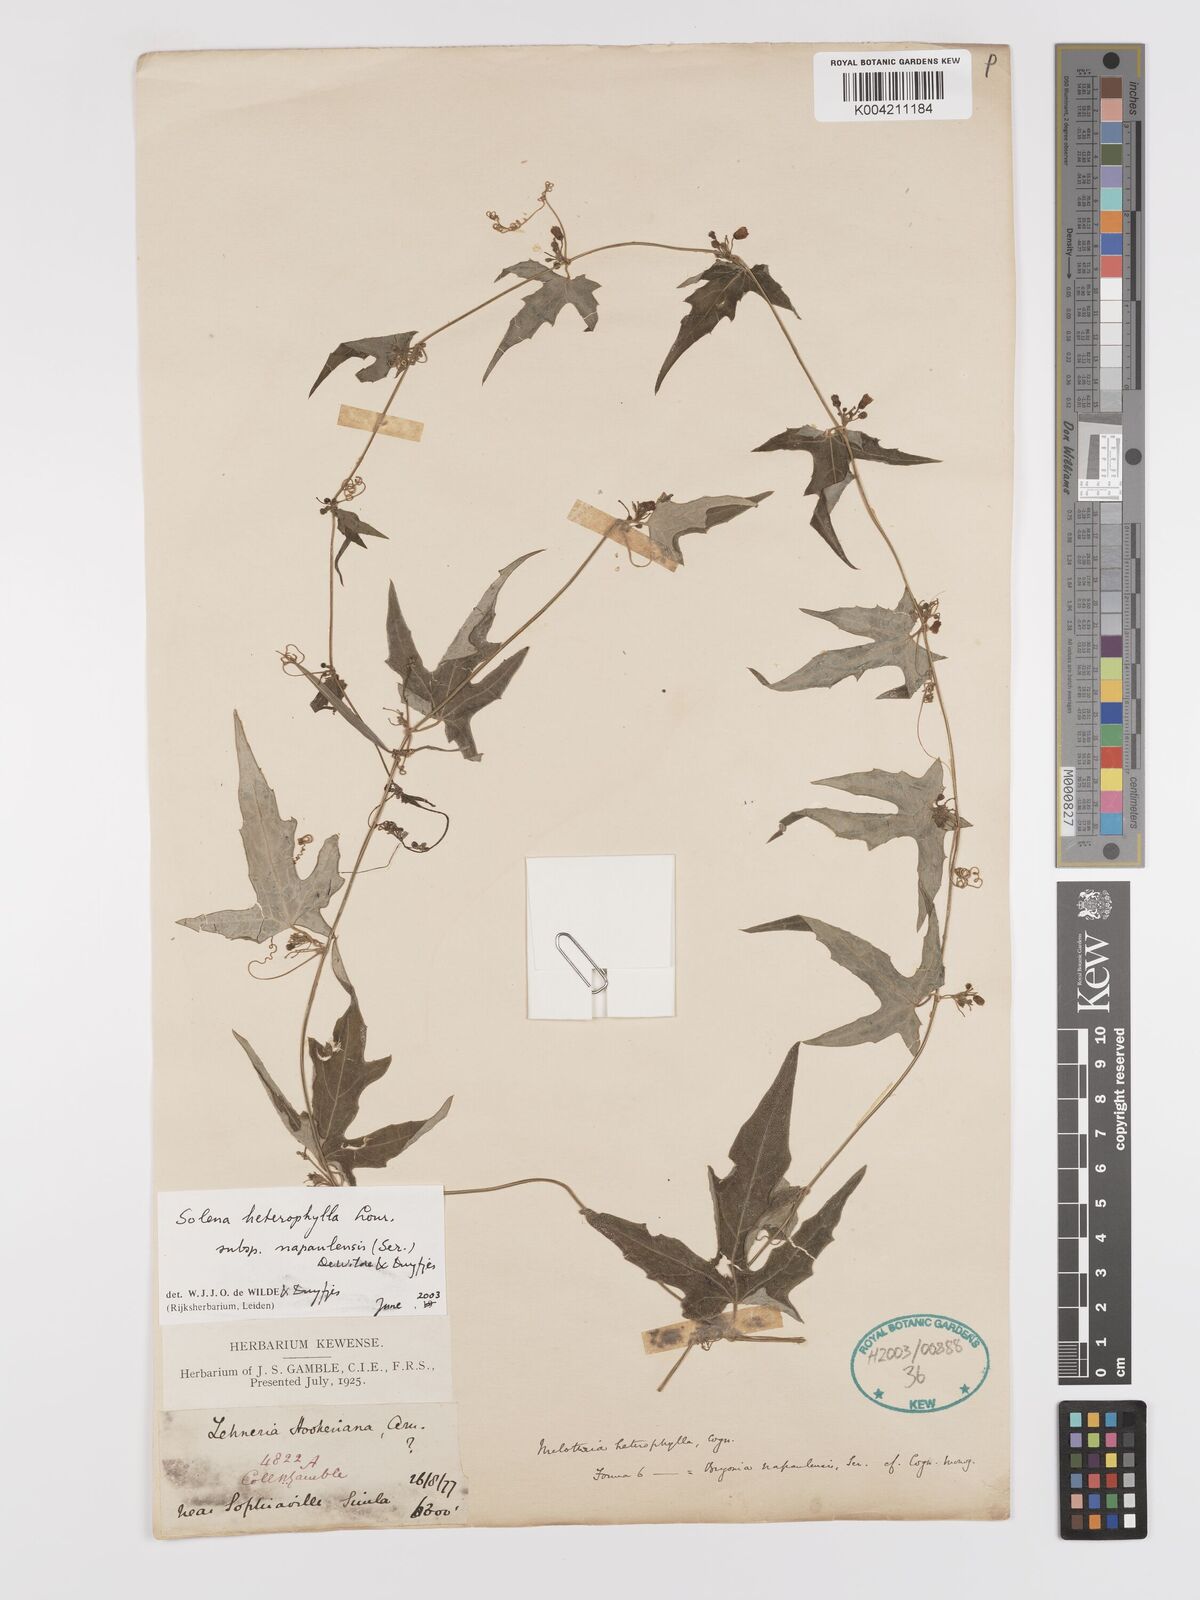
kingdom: Plantae
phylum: Tracheophyta
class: Magnoliopsida
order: Cucurbitales
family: Cucurbitaceae
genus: Solena
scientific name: Solena heterophylla
